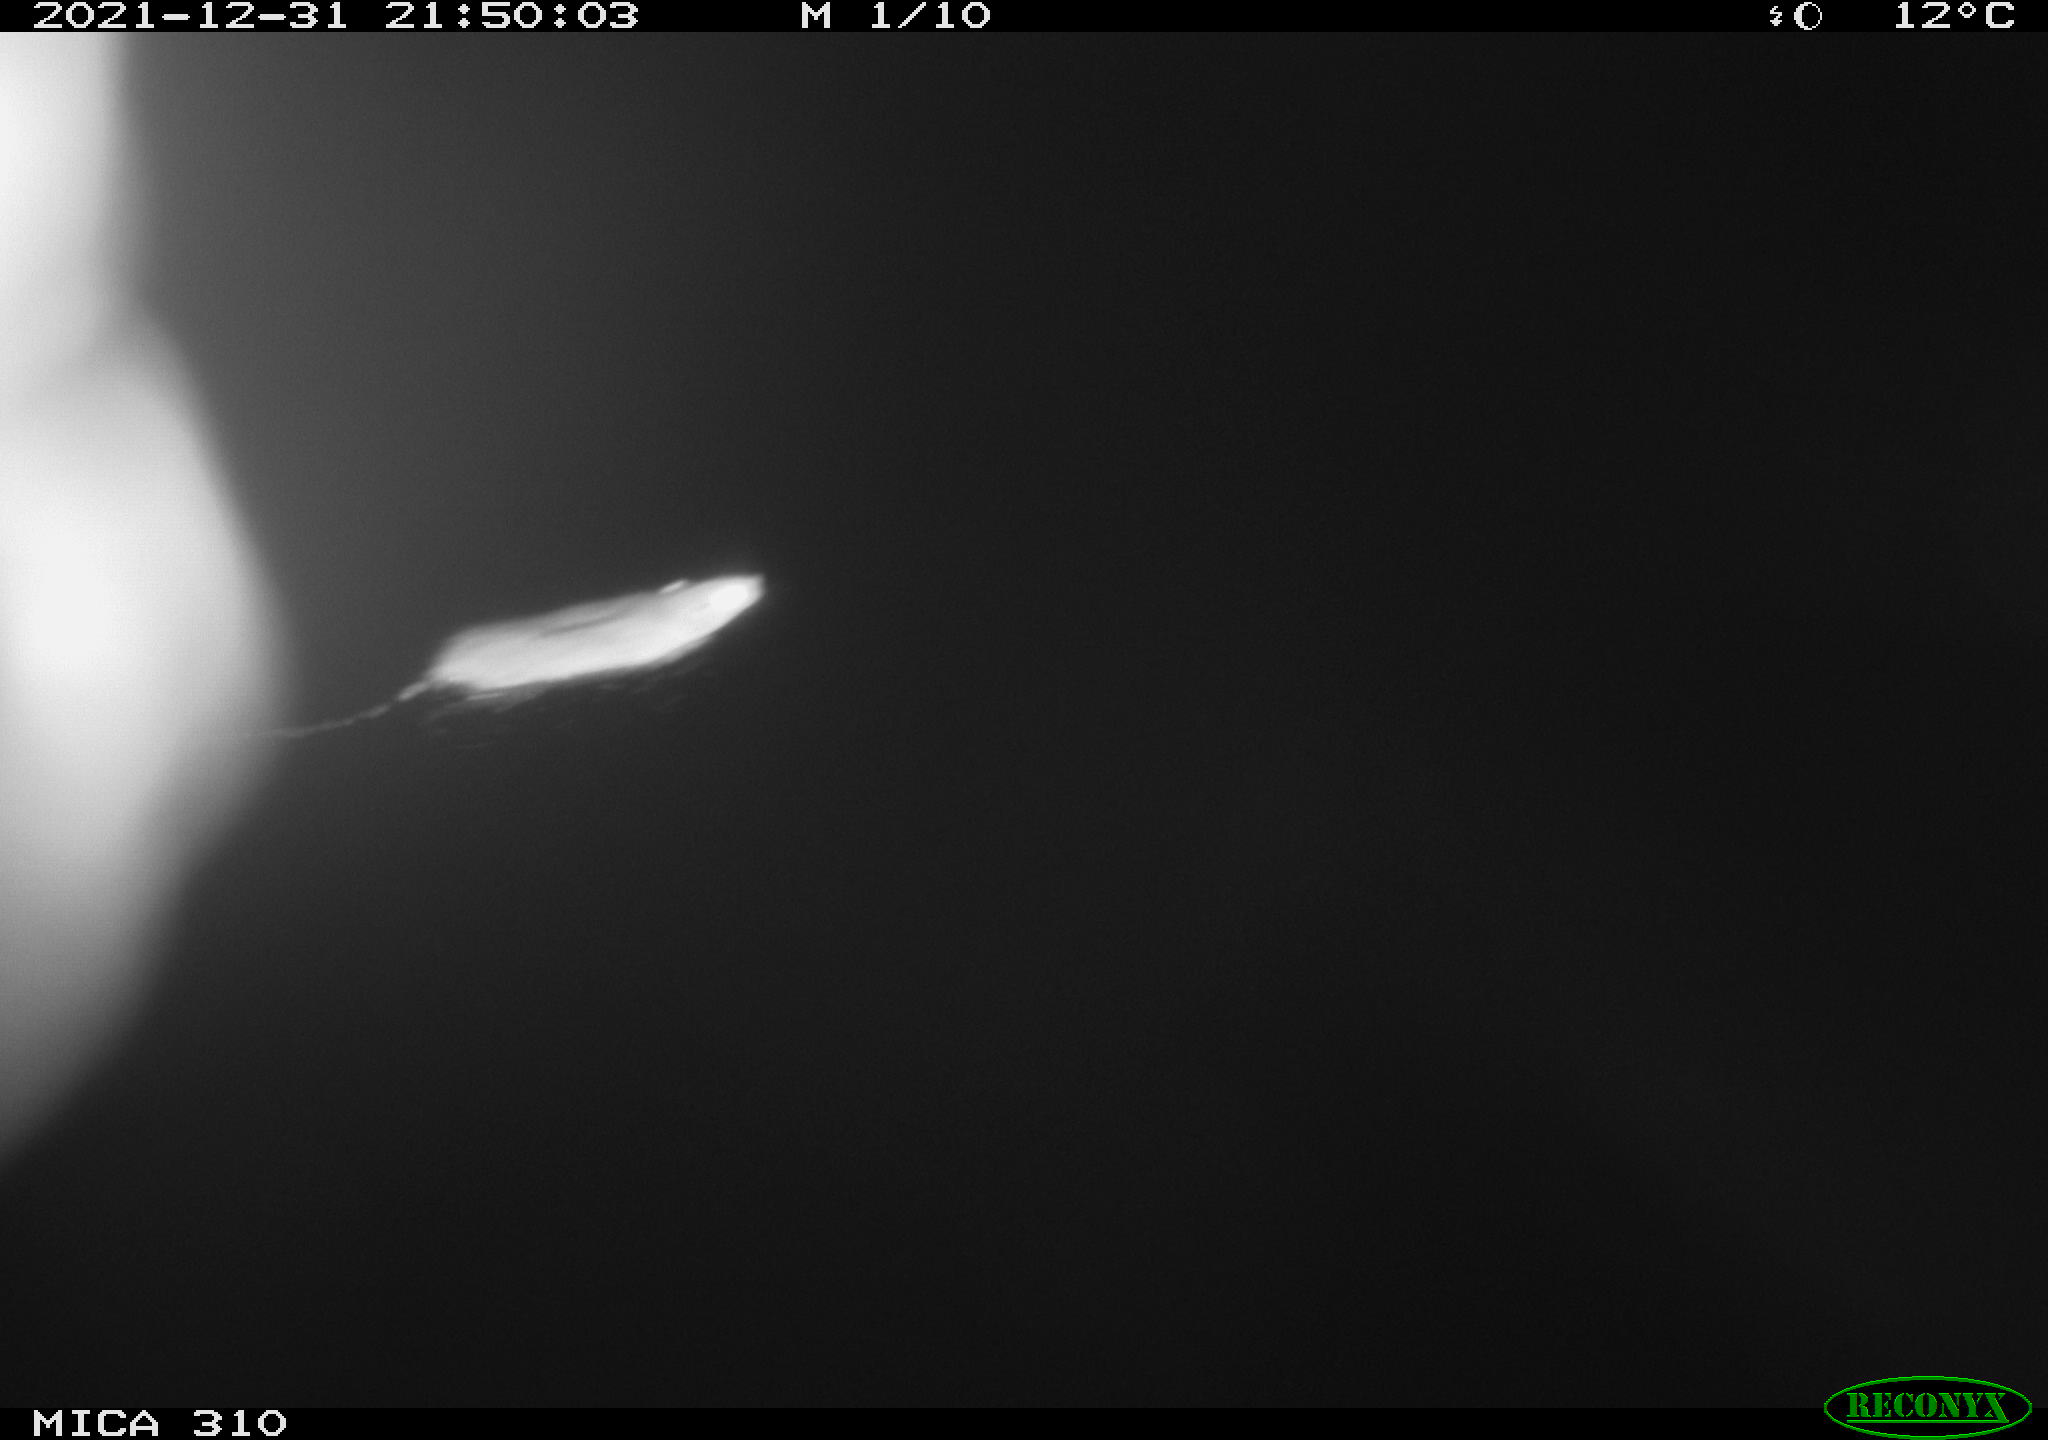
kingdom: Animalia
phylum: Chordata
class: Mammalia
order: Rodentia
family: Muridae
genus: Rattus
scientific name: Rattus norvegicus
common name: Brown rat
